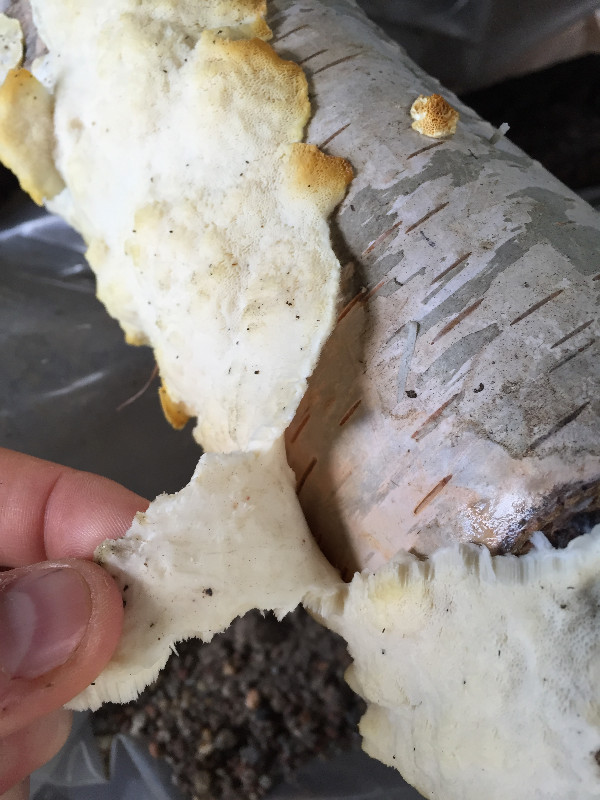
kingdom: Fungi
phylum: Basidiomycota
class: Agaricomycetes
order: Polyporales
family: Steccherinaceae
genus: Antrodiella
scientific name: Antrodiella
